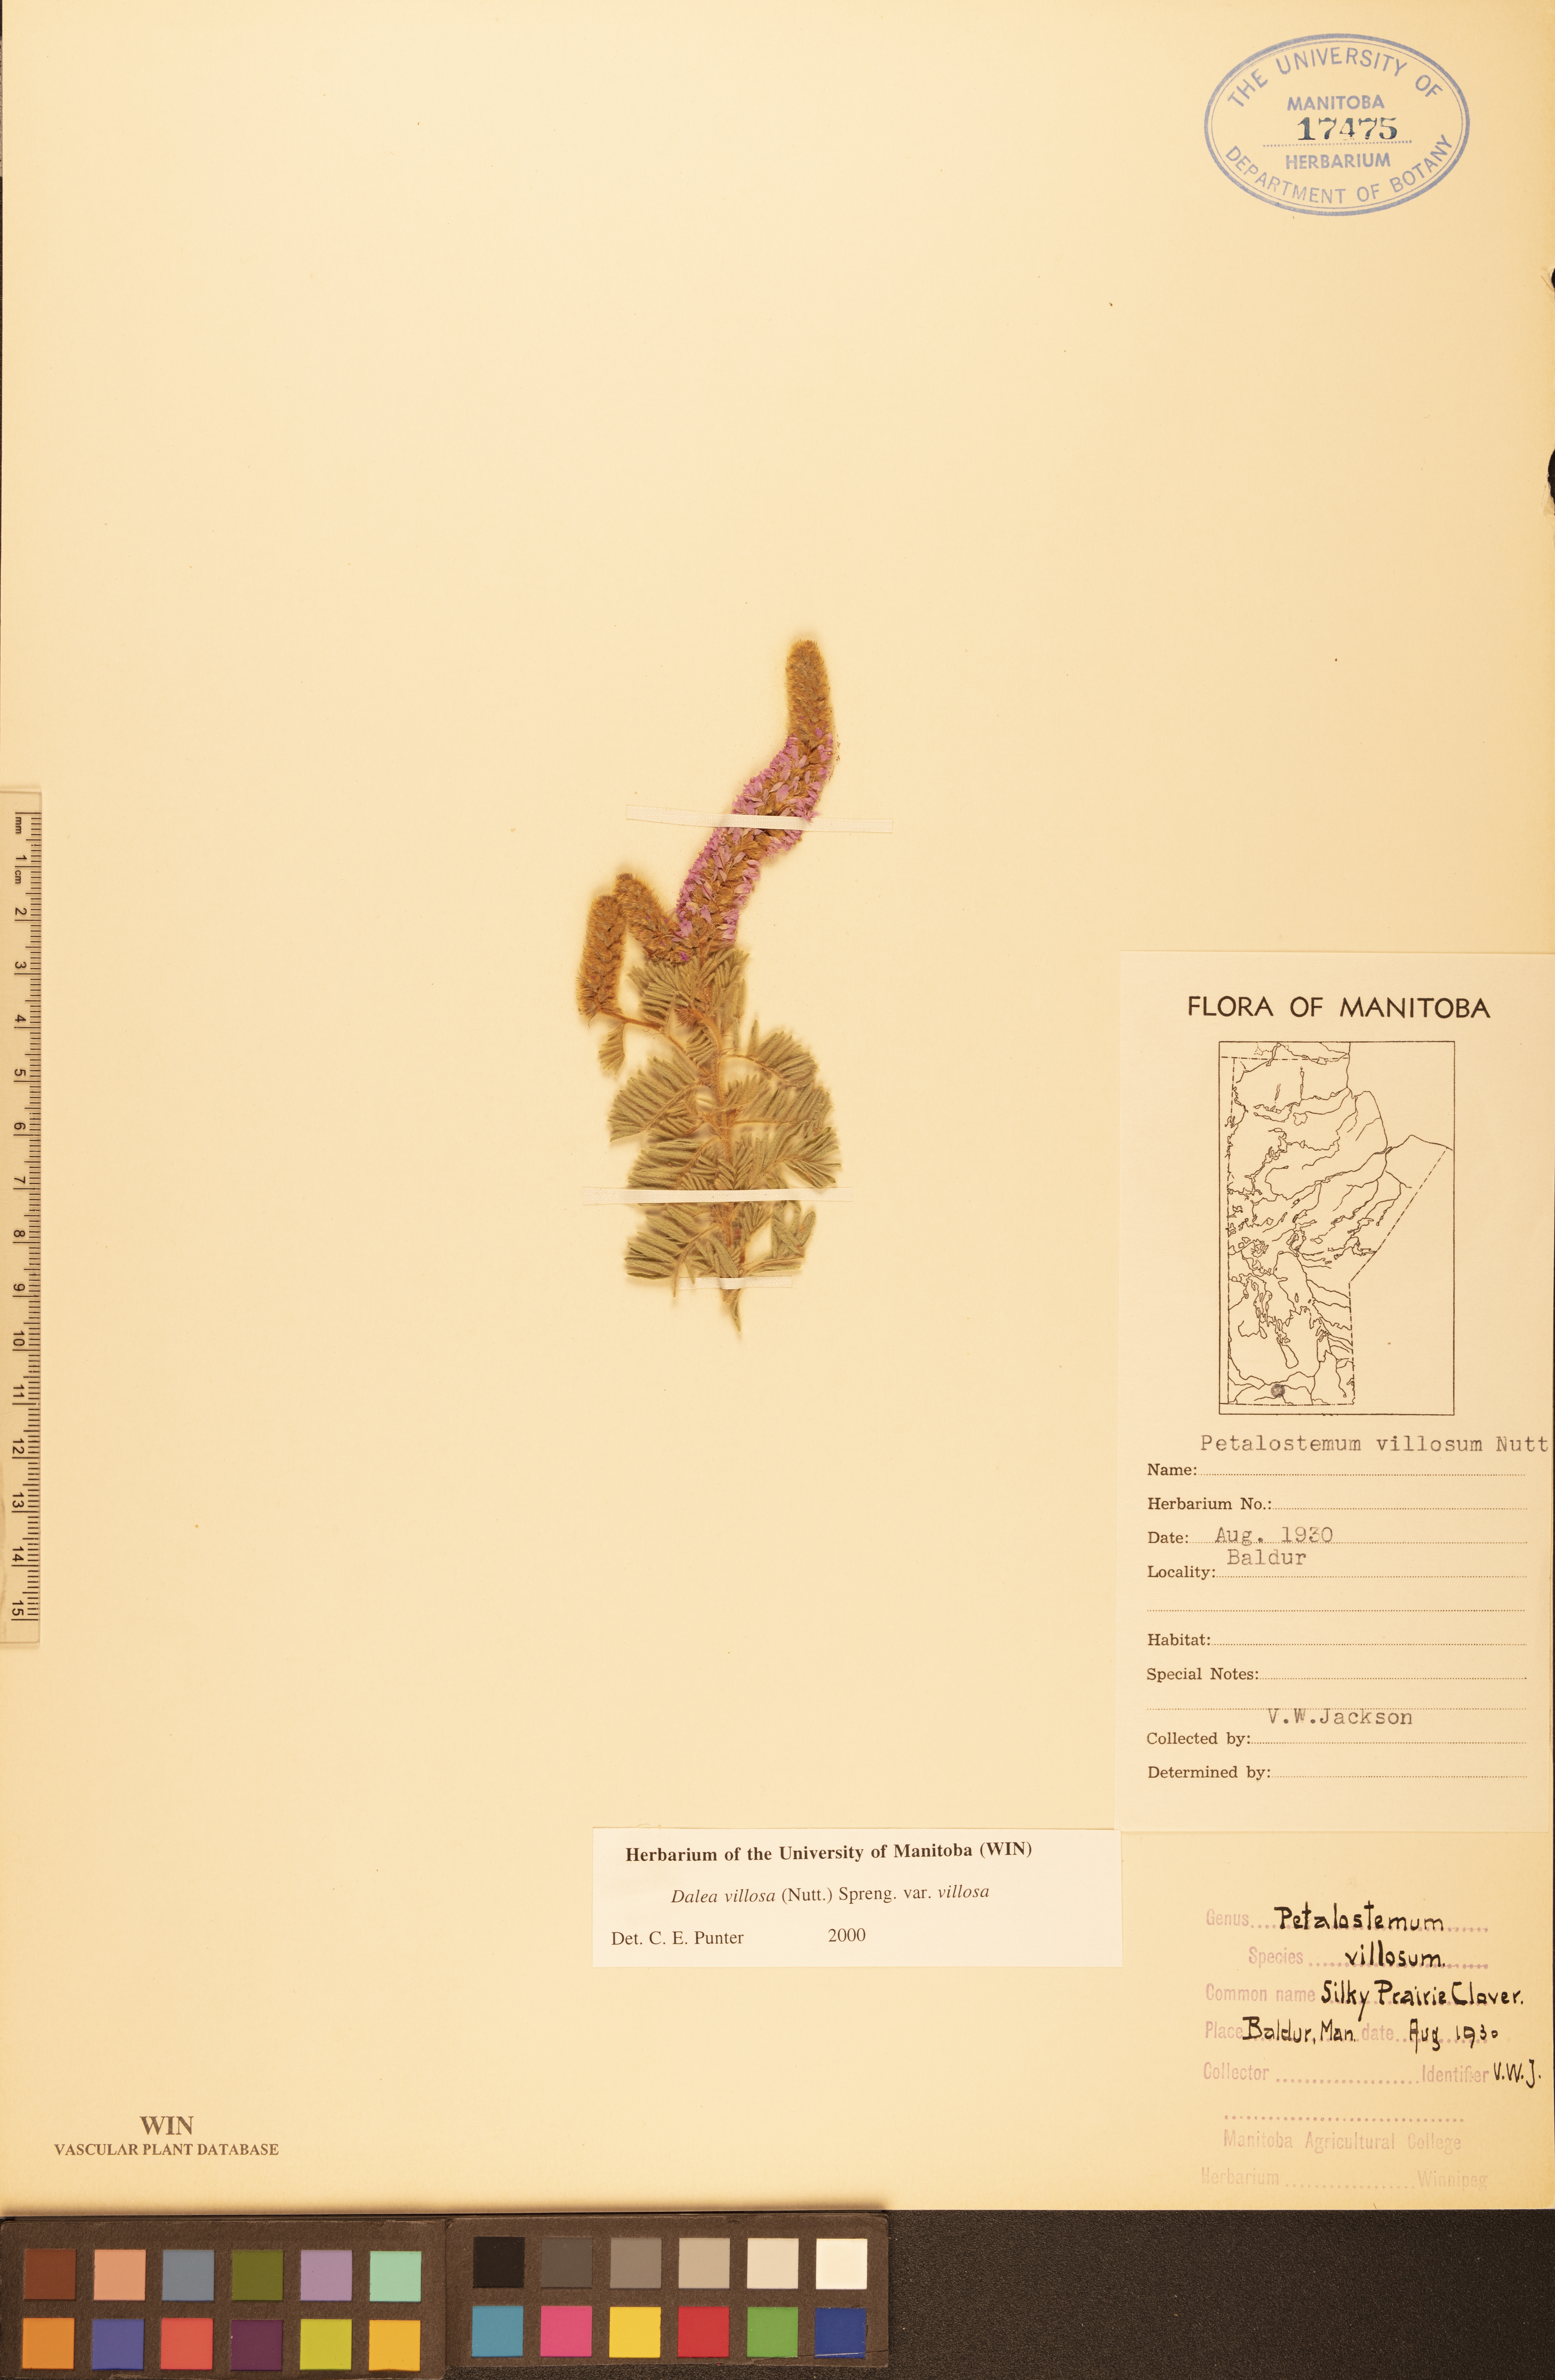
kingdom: Plantae
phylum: Tracheophyta
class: Magnoliopsida
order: Fabales
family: Fabaceae
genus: Dalea
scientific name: Dalea villosa
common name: Silky prairie-clover
